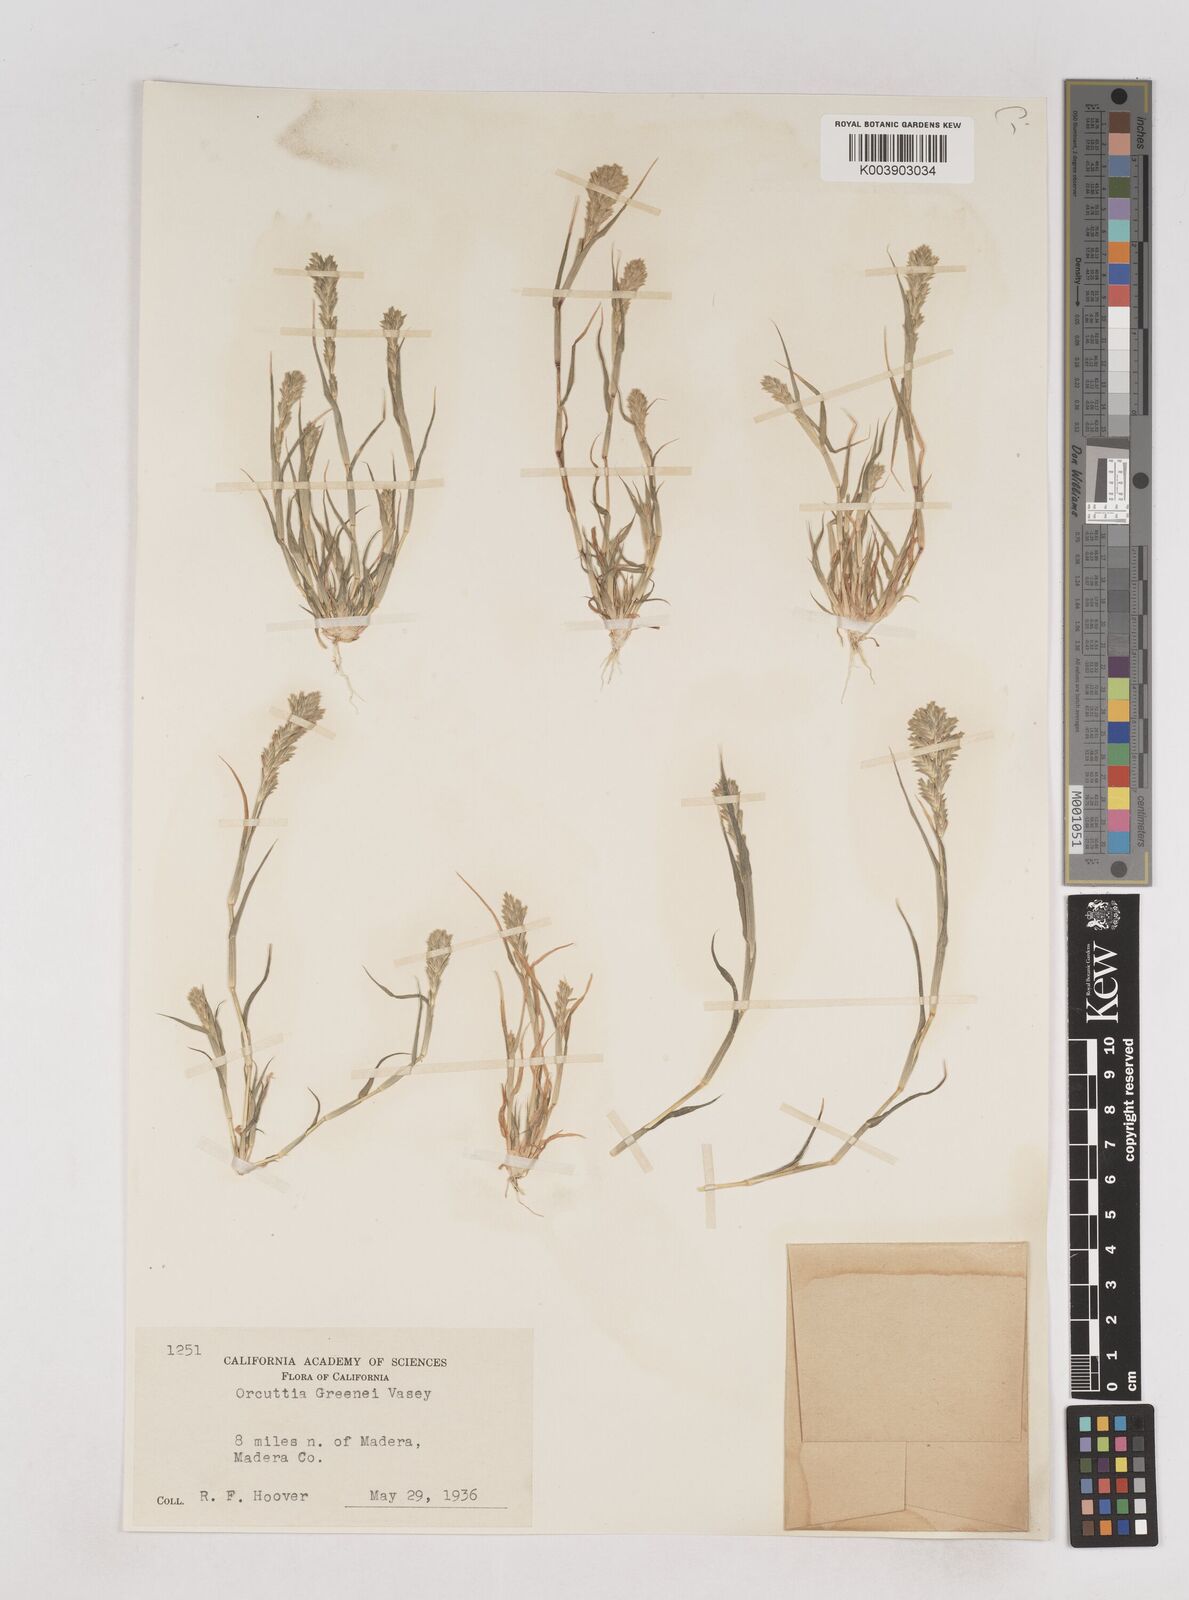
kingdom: Plantae
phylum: Tracheophyta
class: Liliopsida
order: Poales
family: Poaceae
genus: Tuctoria
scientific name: Tuctoria greenei
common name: Awnless spiral grass
